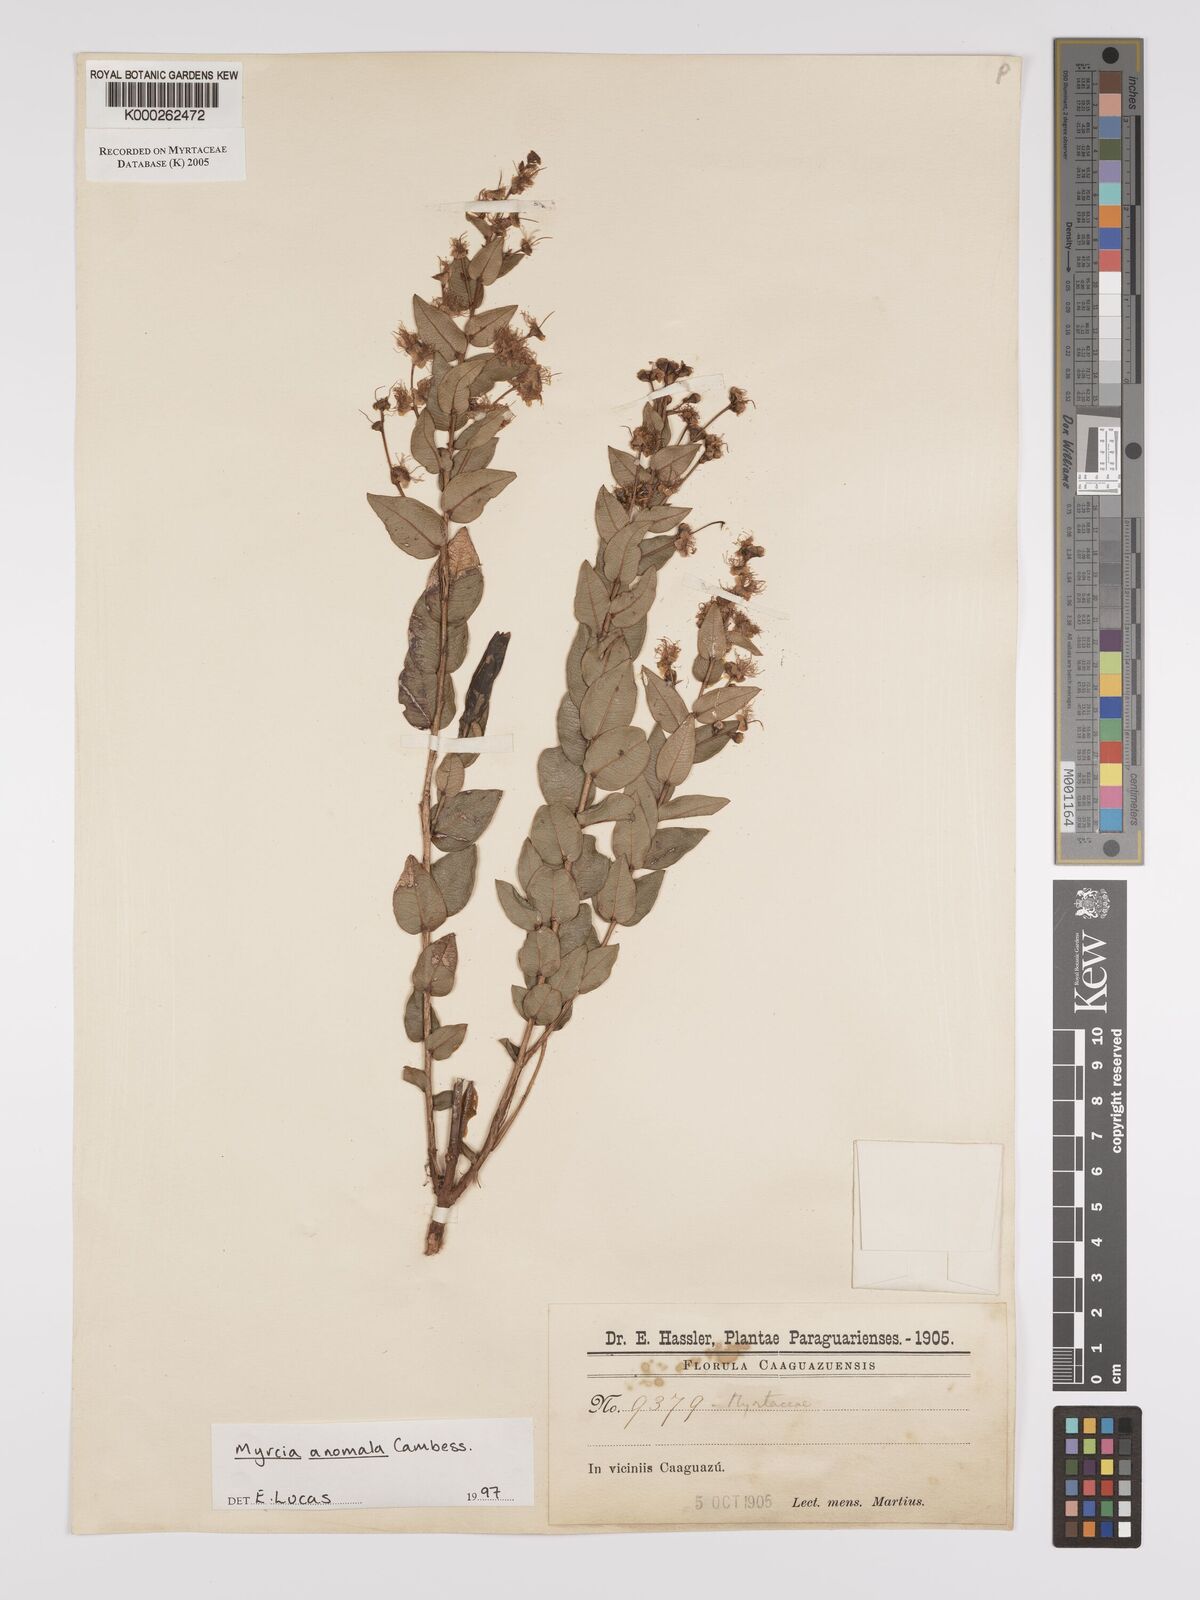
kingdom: Plantae
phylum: Tracheophyta
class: Magnoliopsida
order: Myrtales
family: Myrtaceae
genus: Myrcia
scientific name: Myrcia anomala
